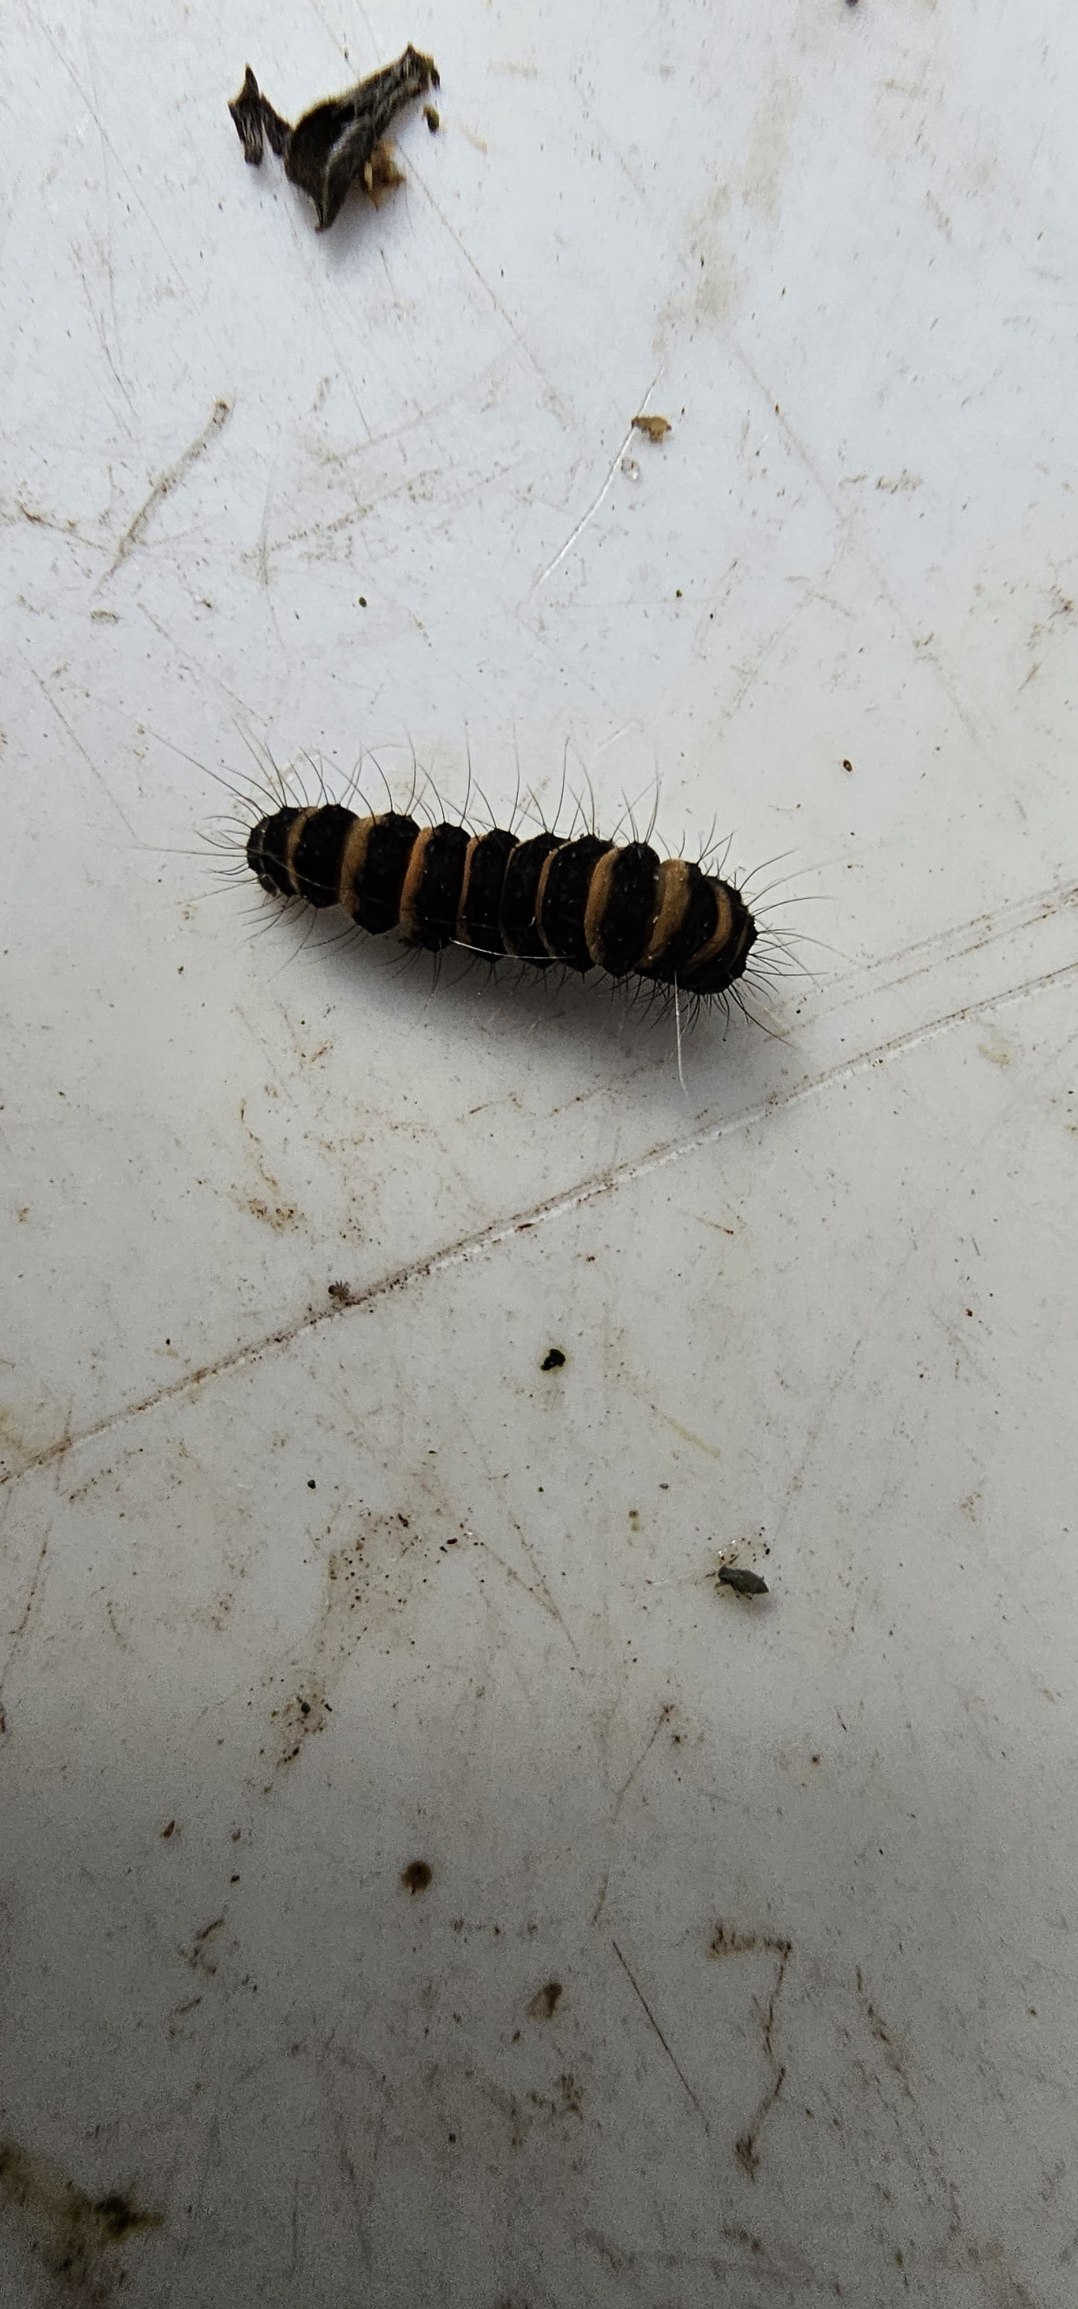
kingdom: Animalia
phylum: Arthropoda
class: Insecta
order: Lepidoptera
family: Erebidae
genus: Tyria
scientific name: Tyria jacobaeae
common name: Blodplet
